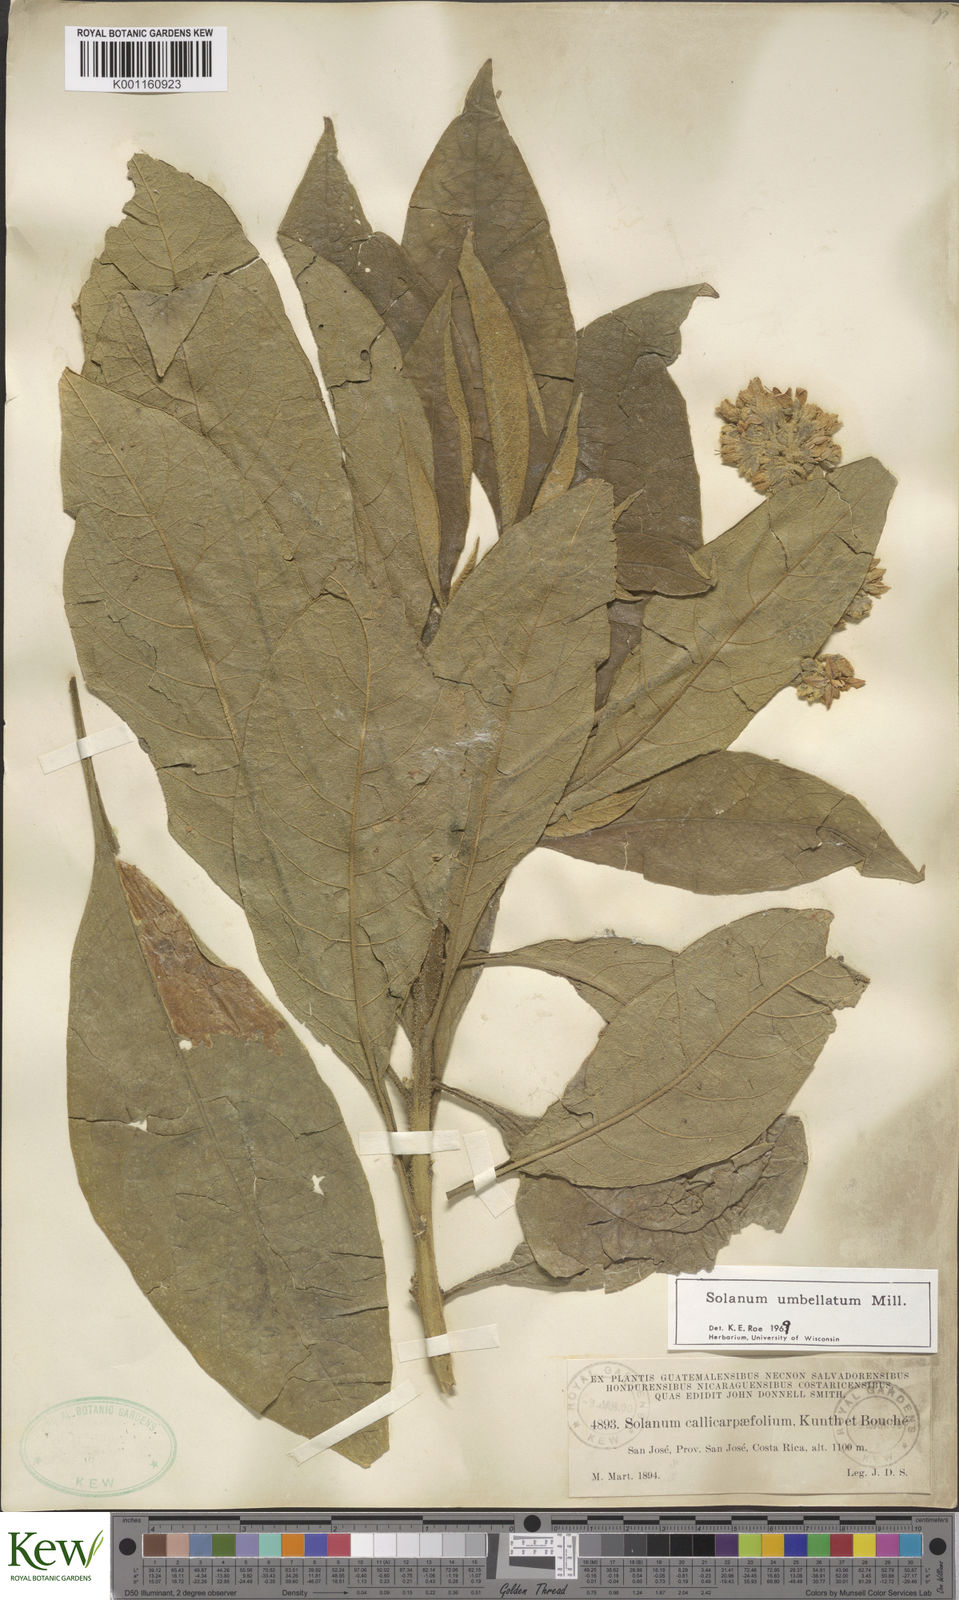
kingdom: Plantae
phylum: Tracheophyta
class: Magnoliopsida
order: Solanales
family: Solanaceae
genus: Solanum
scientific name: Solanum umbellatum
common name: Nightshade
